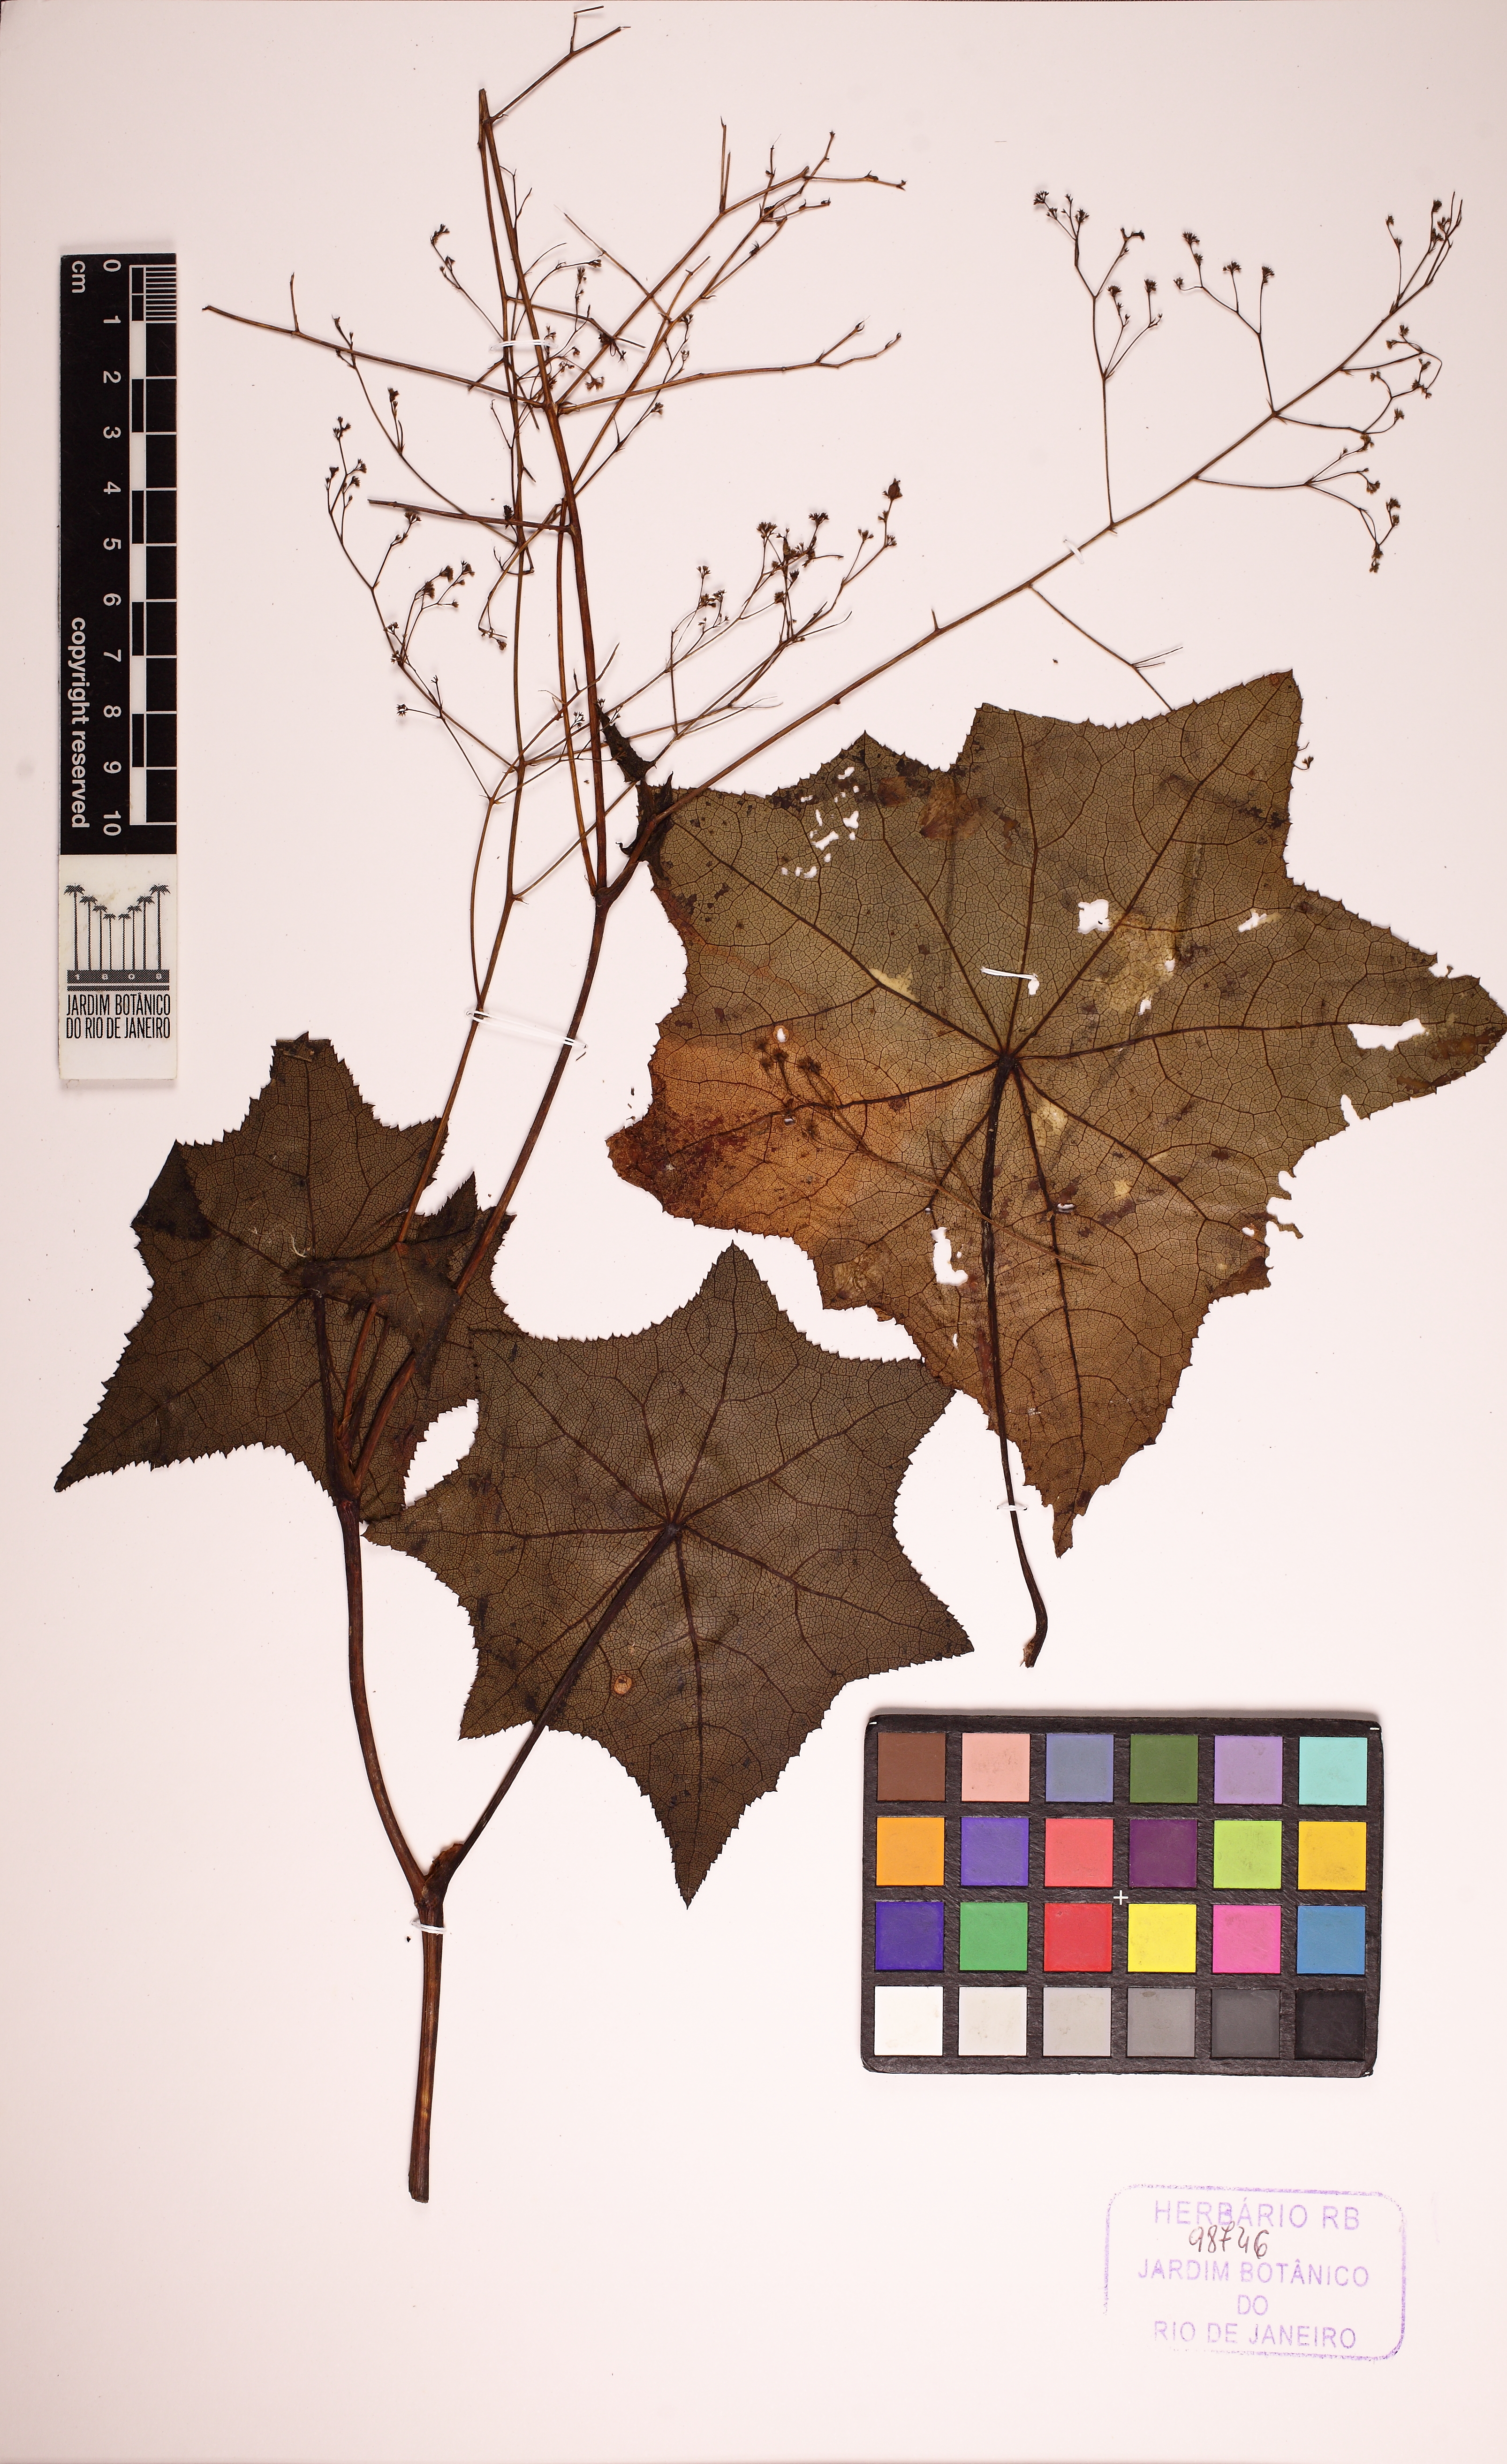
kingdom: Plantae
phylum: Tracheophyta
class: Magnoliopsida
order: Apiales
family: Apiaceae
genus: Klotzschia
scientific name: Klotzschia brasiliensis
